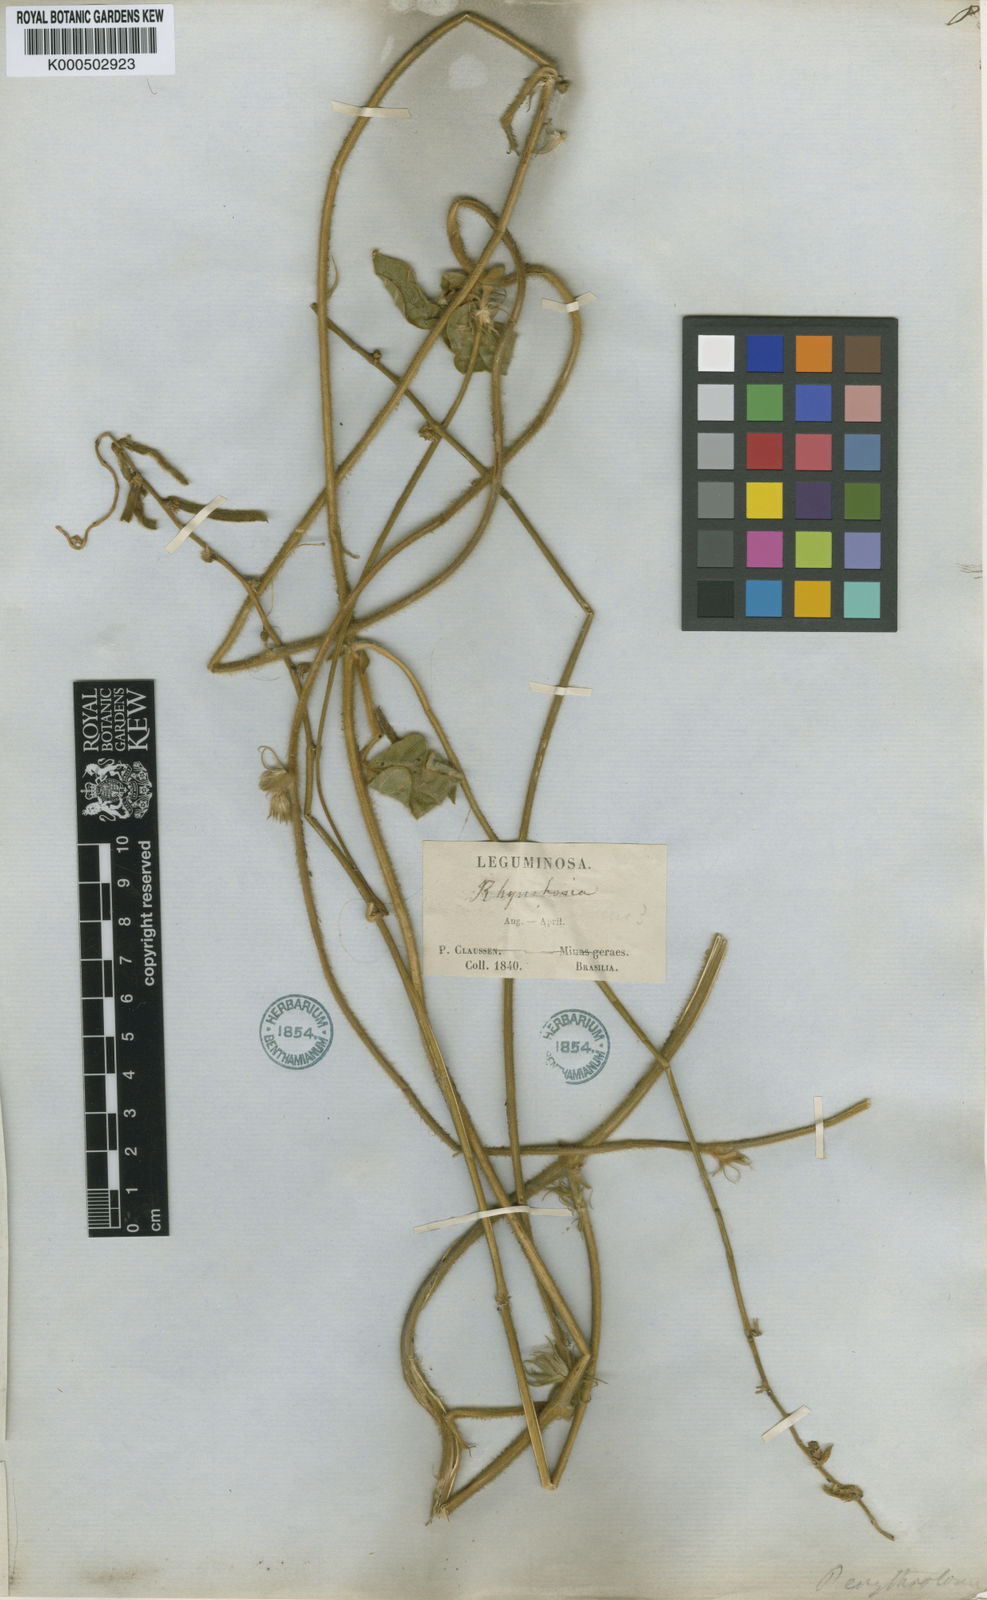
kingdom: Plantae
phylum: Tracheophyta
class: Magnoliopsida
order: Fabales
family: Fabaceae
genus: Macroptilium
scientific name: Macroptilium erythroloma
